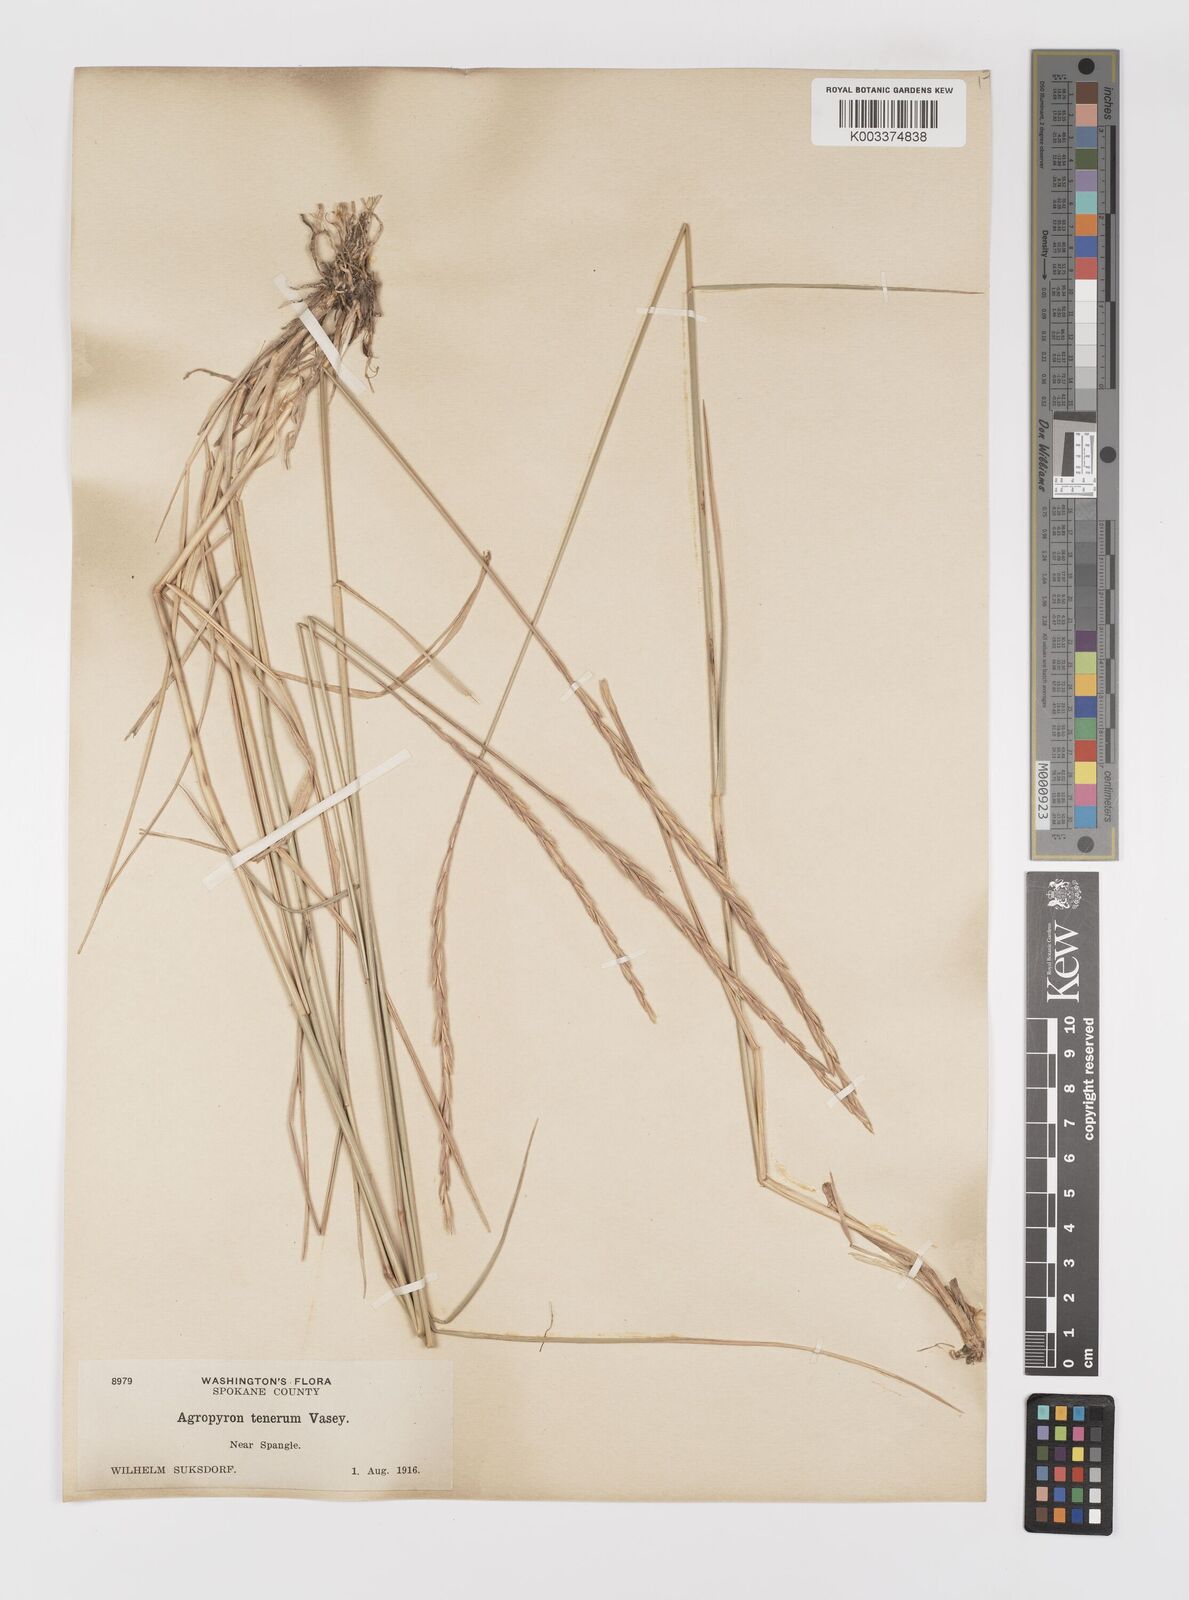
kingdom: Plantae
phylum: Tracheophyta
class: Liliopsida
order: Poales
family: Poaceae
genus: Elymus
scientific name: Elymus violaceus
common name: Arctic wheatgrass
